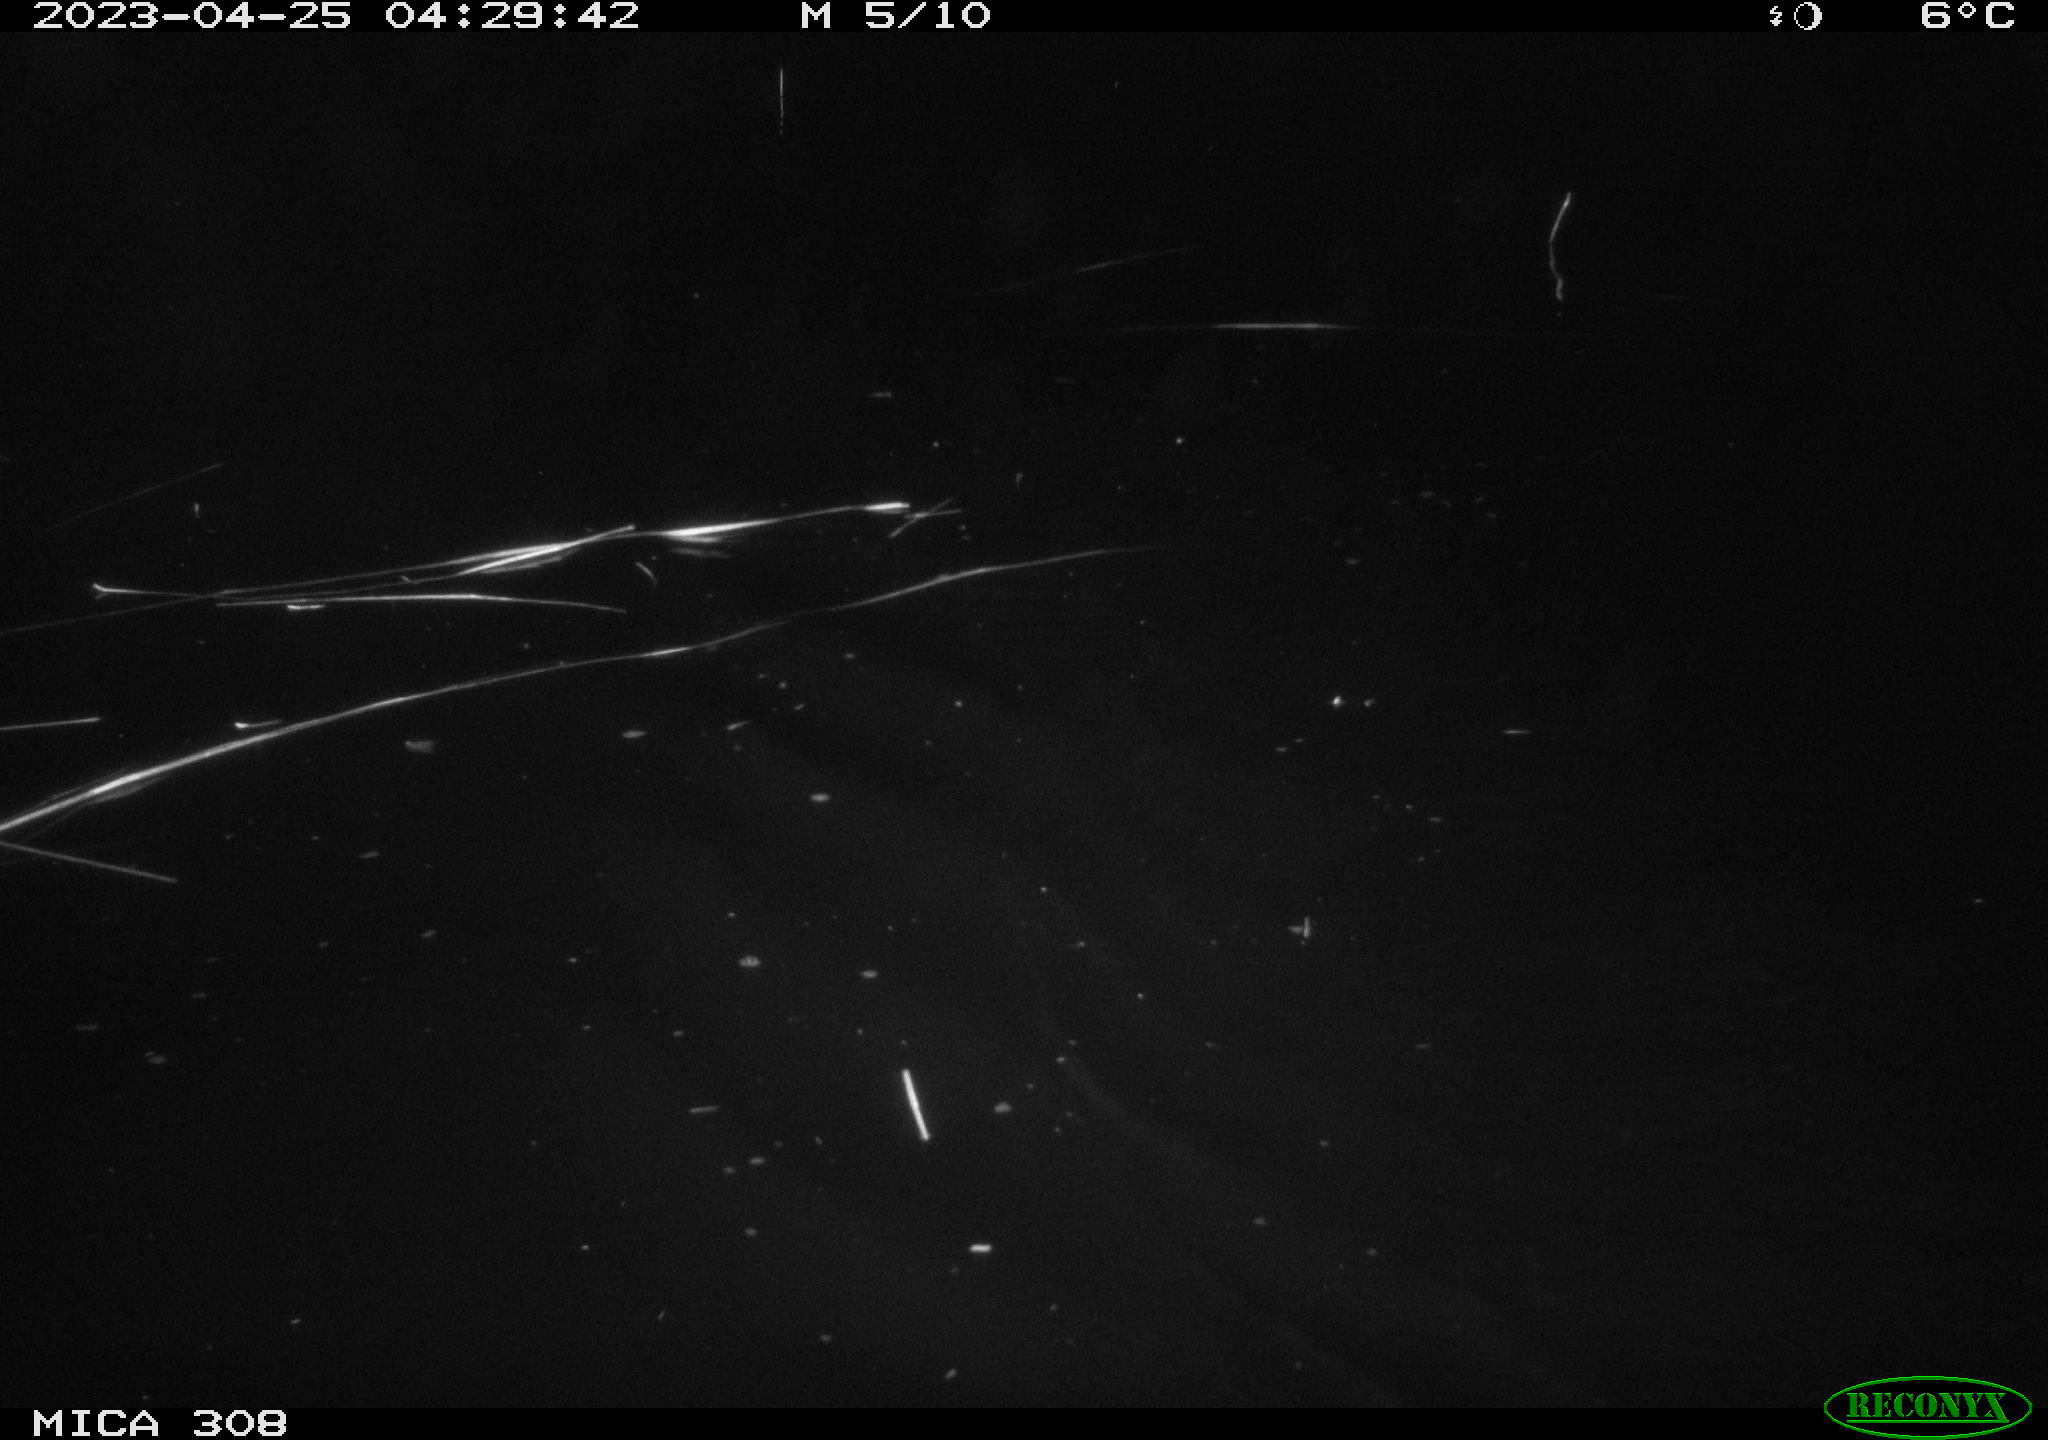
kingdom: Animalia
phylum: Chordata
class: Aves
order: Anseriformes
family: Anatidae
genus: Anas
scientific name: Anas
